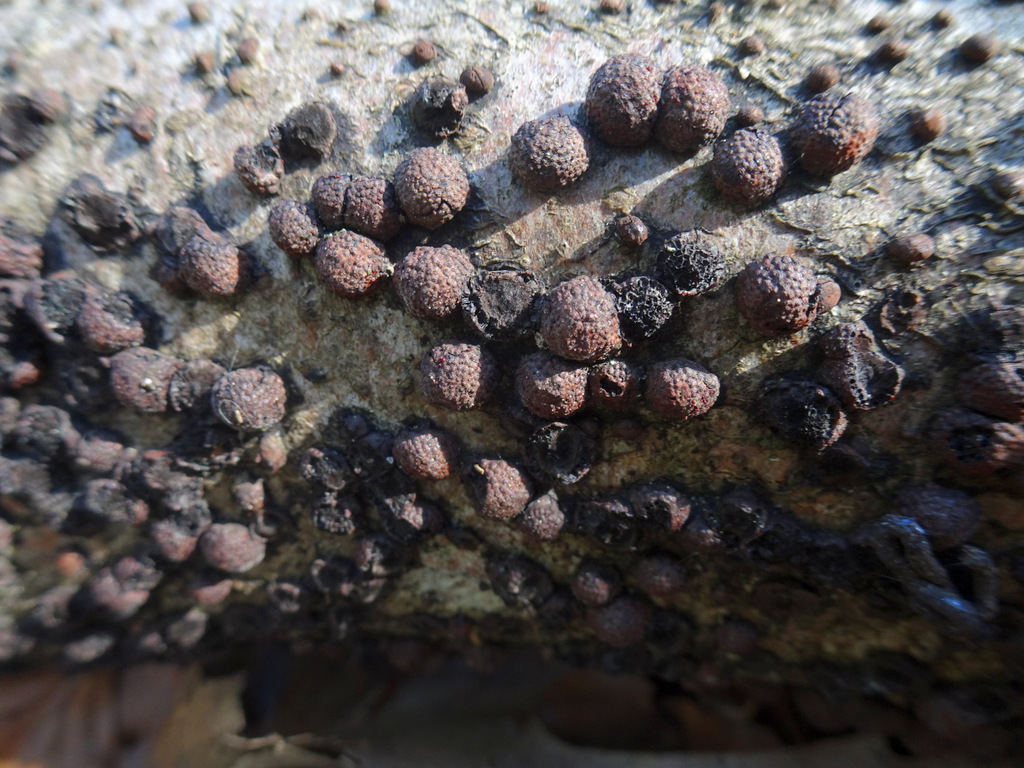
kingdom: Fungi
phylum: Ascomycota
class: Sordariomycetes
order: Xylariales
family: Hypoxylaceae
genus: Hypoxylon
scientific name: Hypoxylon fragiforme
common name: kuljordbær
